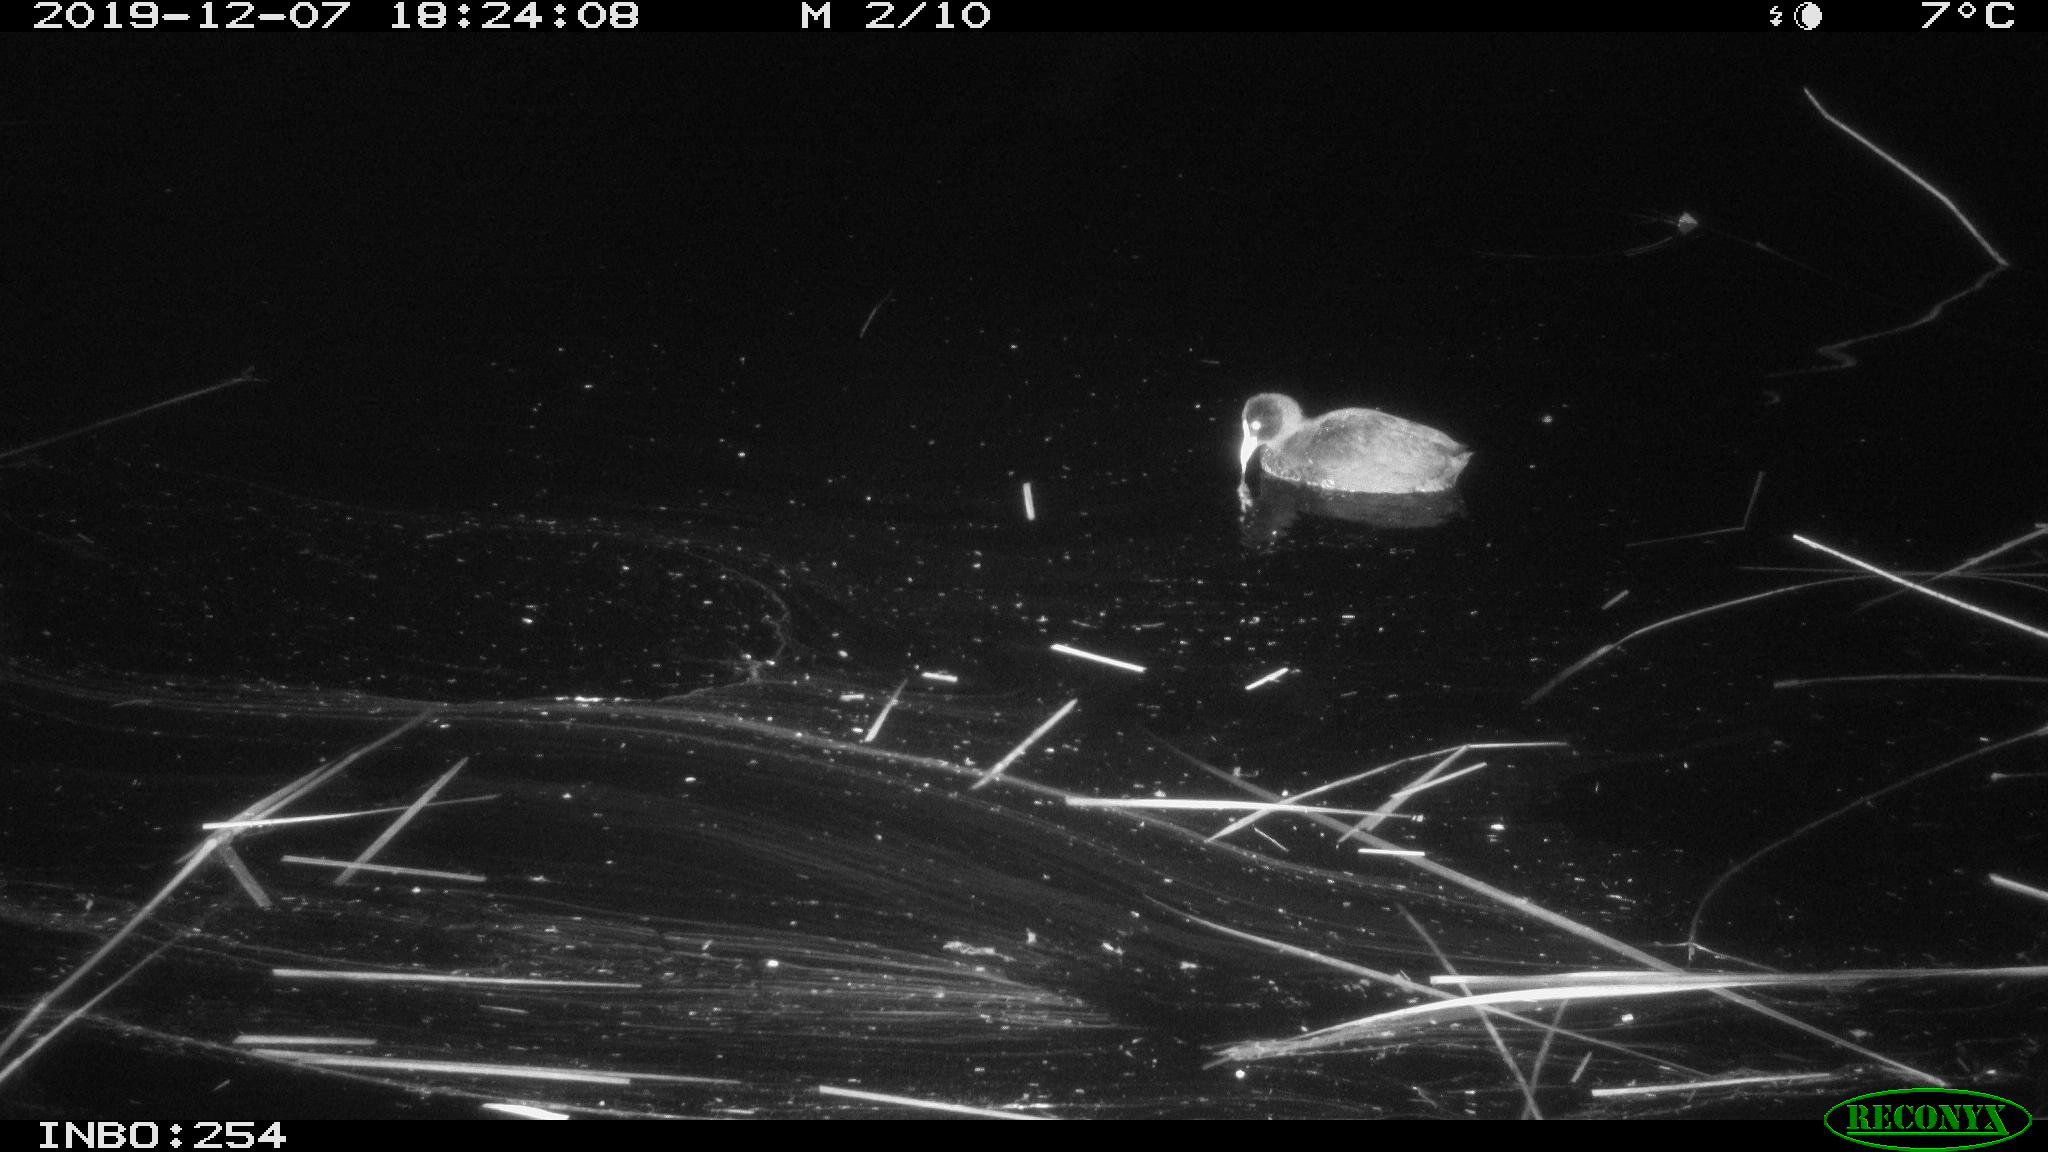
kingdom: Animalia
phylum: Chordata
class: Aves
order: Gruiformes
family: Rallidae
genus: Fulica
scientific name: Fulica atra
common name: Eurasian coot
